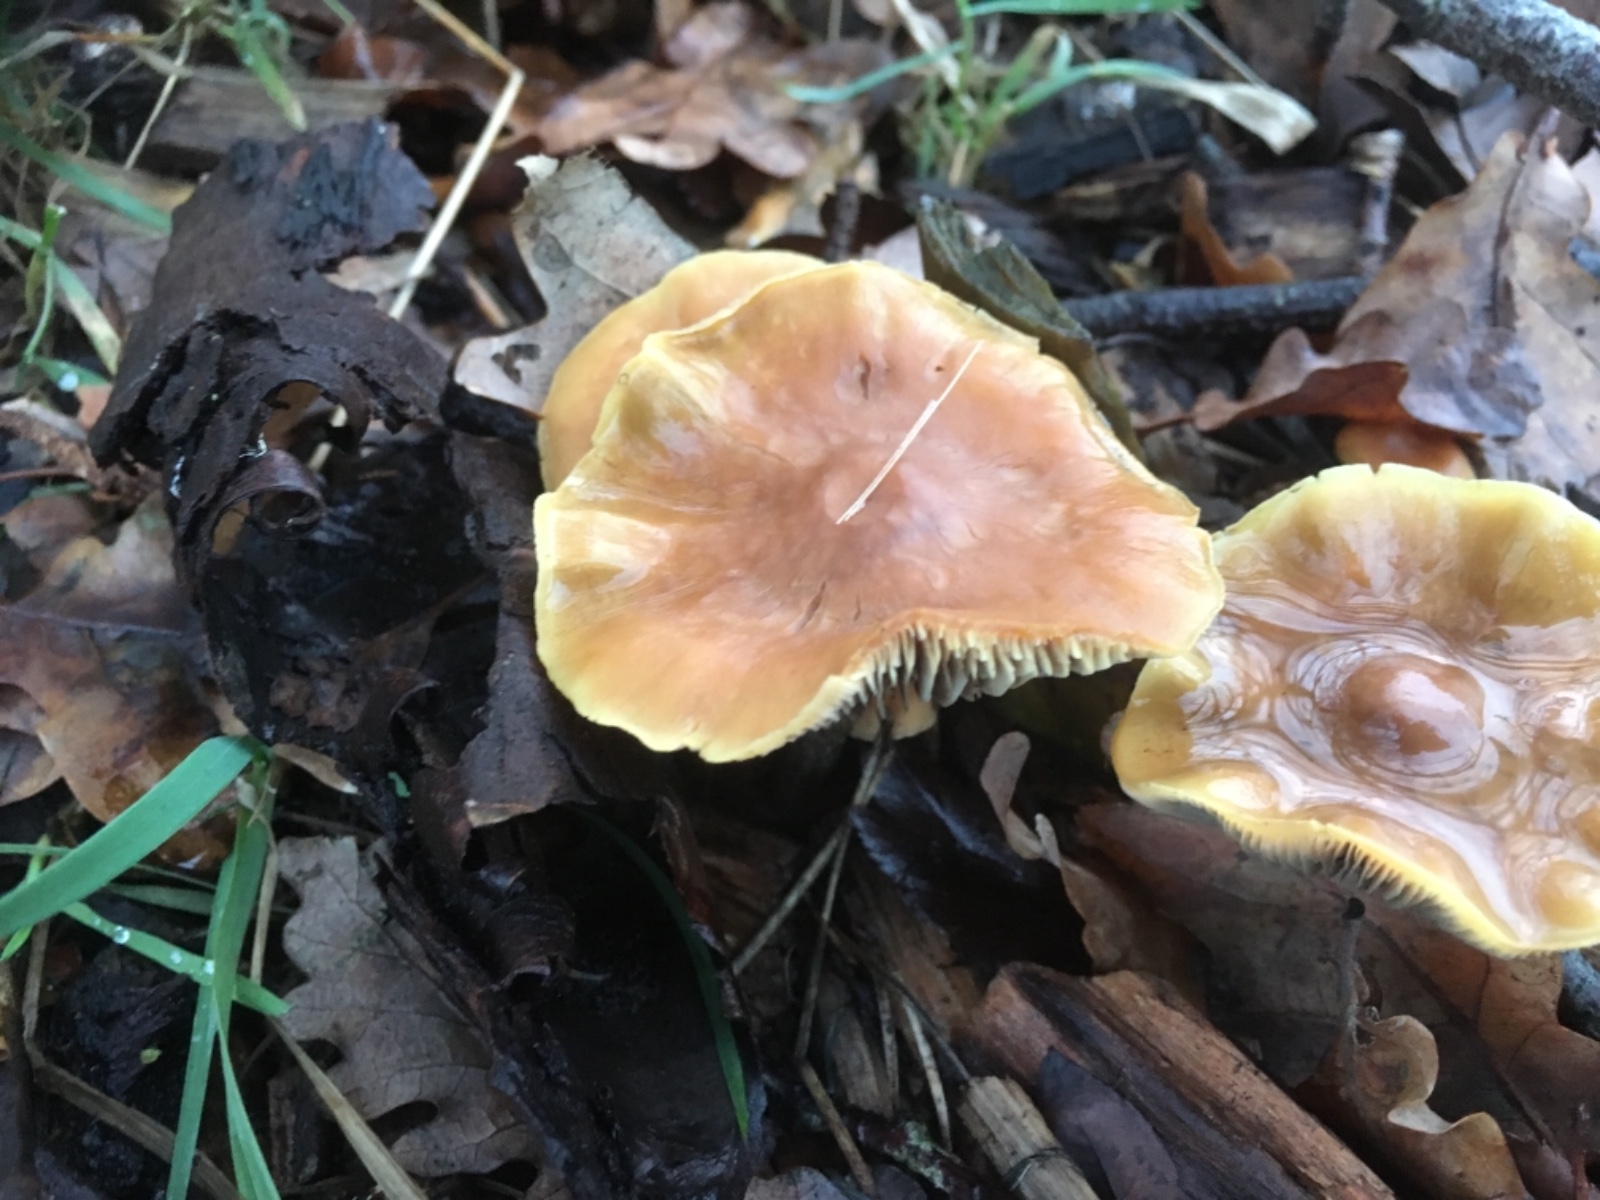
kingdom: Fungi
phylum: Basidiomycota
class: Agaricomycetes
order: Agaricales
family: Strophariaceae
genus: Hypholoma
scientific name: Hypholoma
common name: svovlhat
